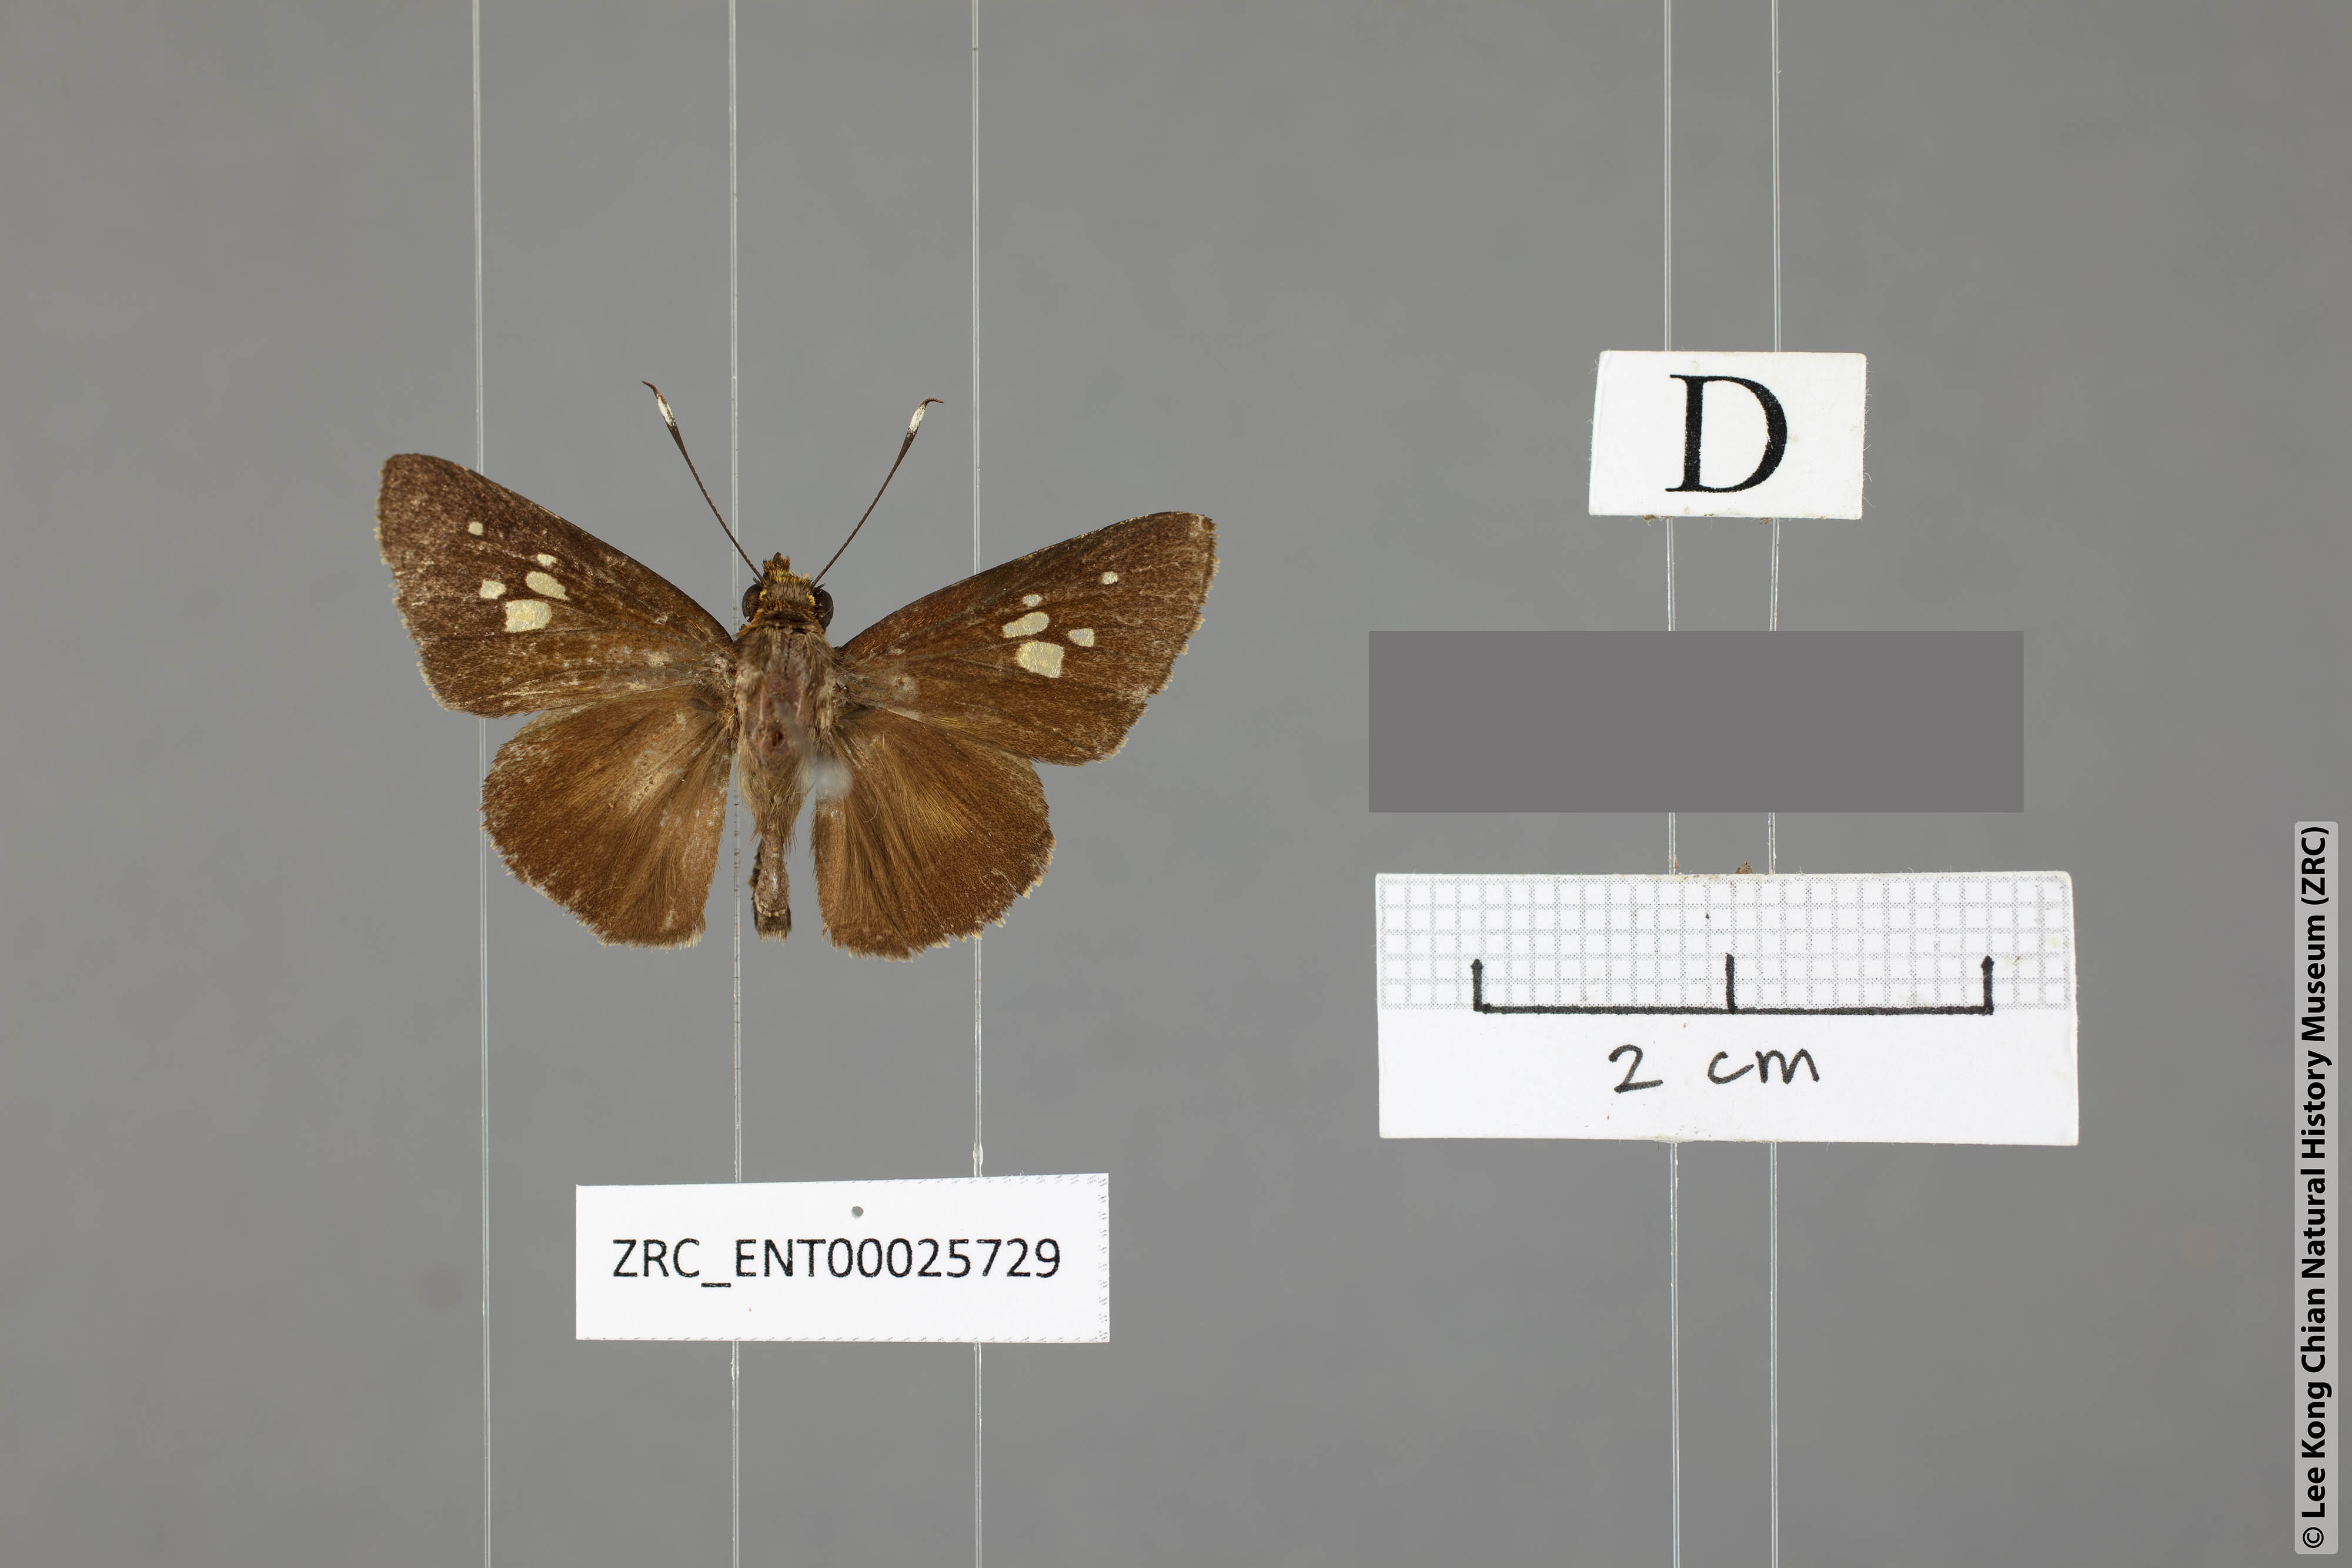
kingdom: Animalia
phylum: Arthropoda
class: Insecta
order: Lepidoptera
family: Hesperiidae
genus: Zographetus
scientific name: Zographetus doxus
